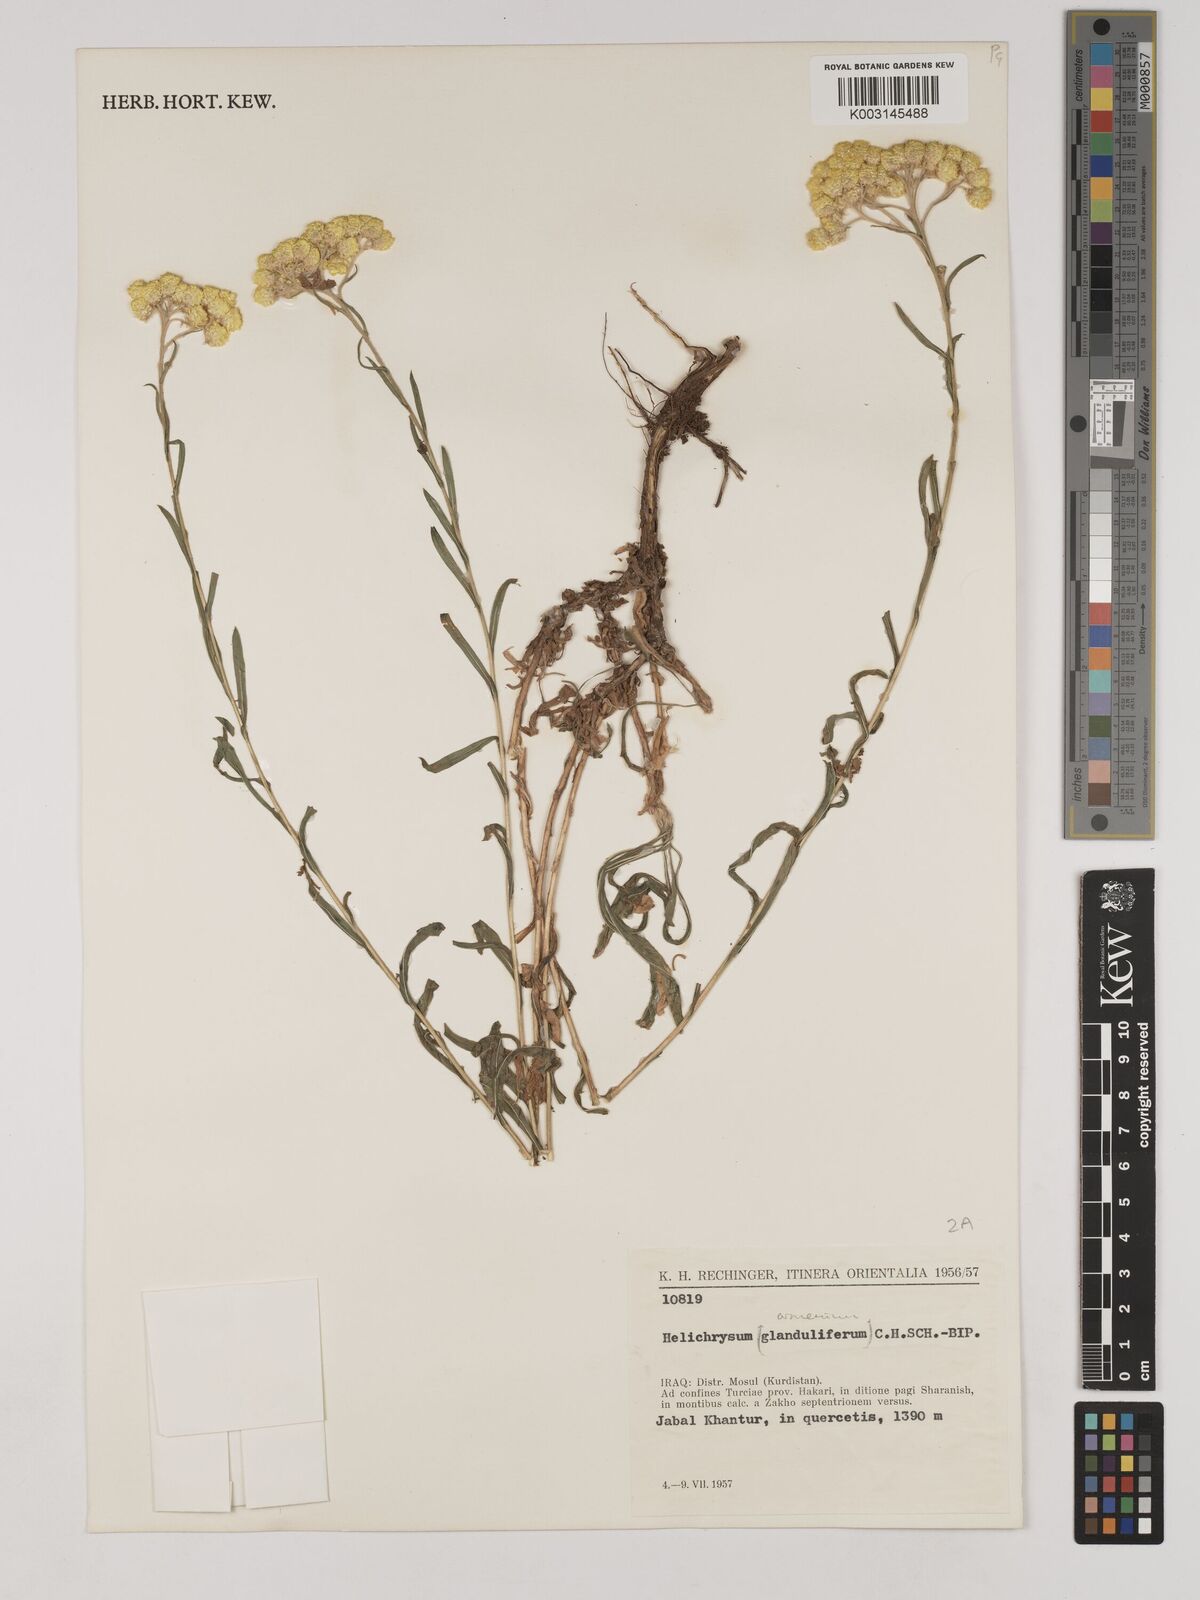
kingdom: Plantae
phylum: Tracheophyta
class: Magnoliopsida
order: Asterales
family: Asteraceae
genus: Helichrysum
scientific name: Helichrysum armenium
